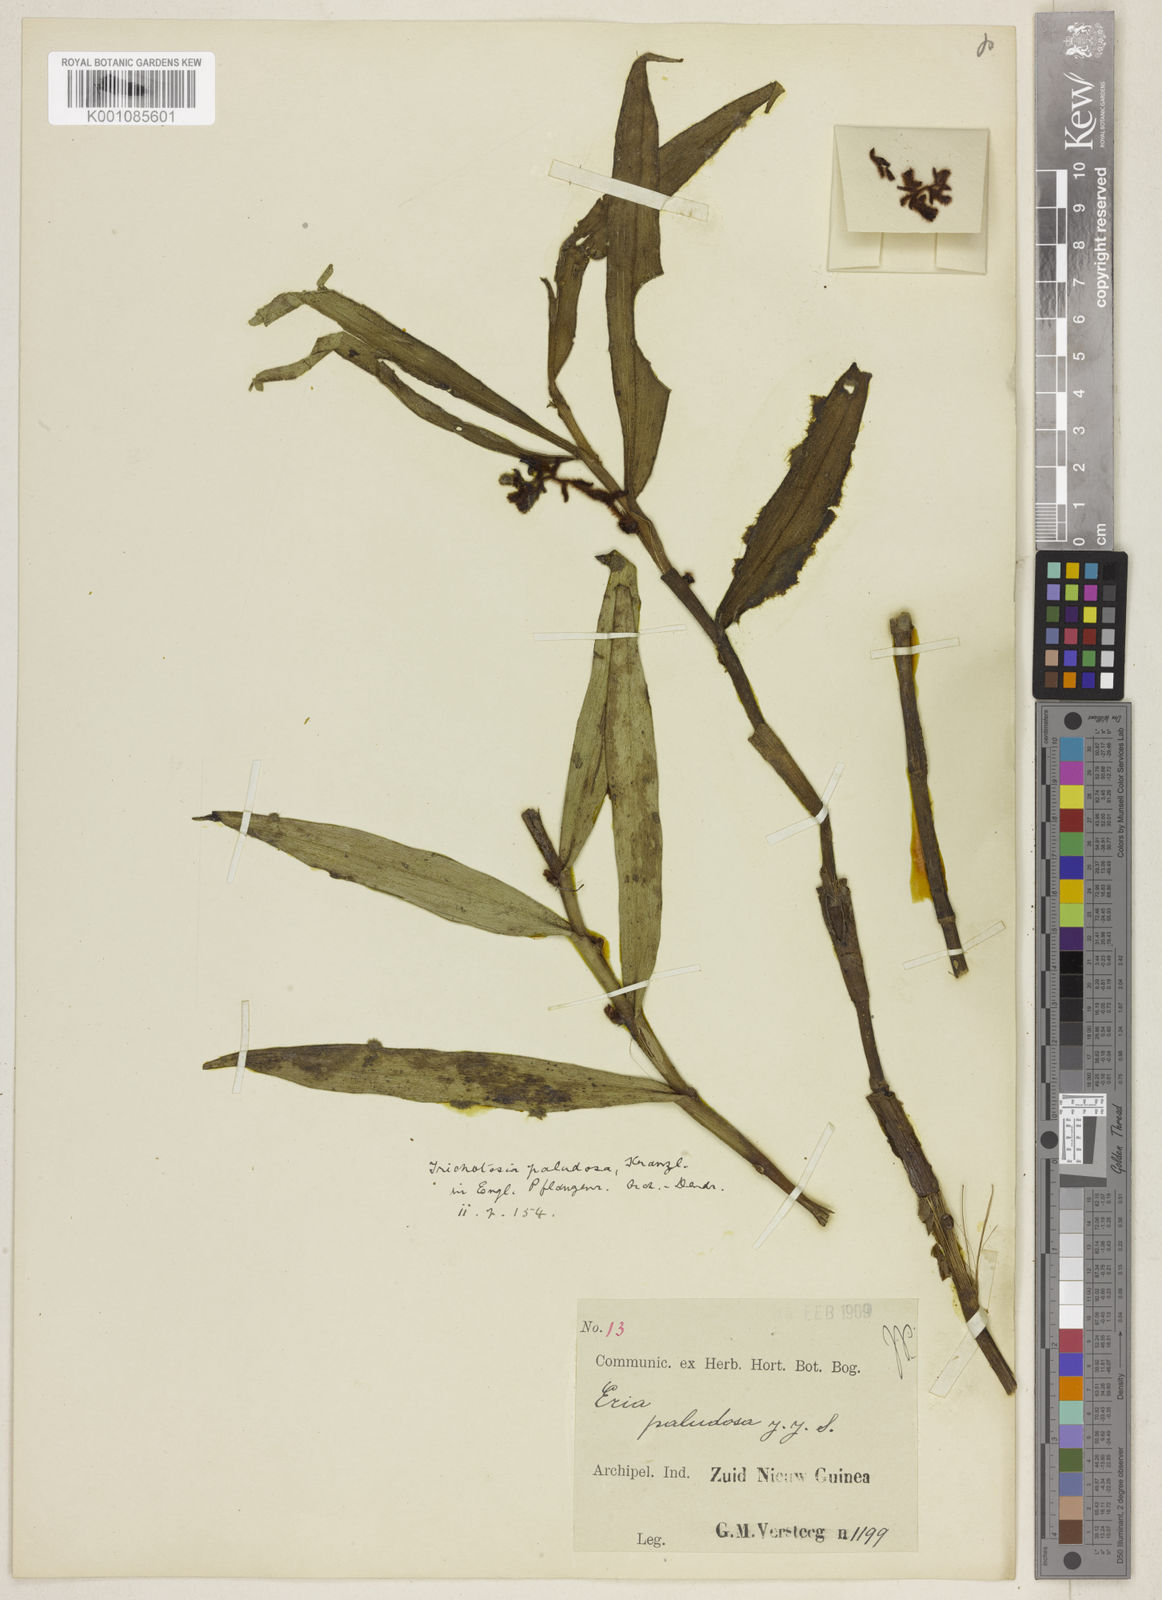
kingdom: Plantae
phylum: Tracheophyta
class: Liliopsida
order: Asparagales
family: Orchidaceae
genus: Trichotosia
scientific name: Trichotosia paludosa
